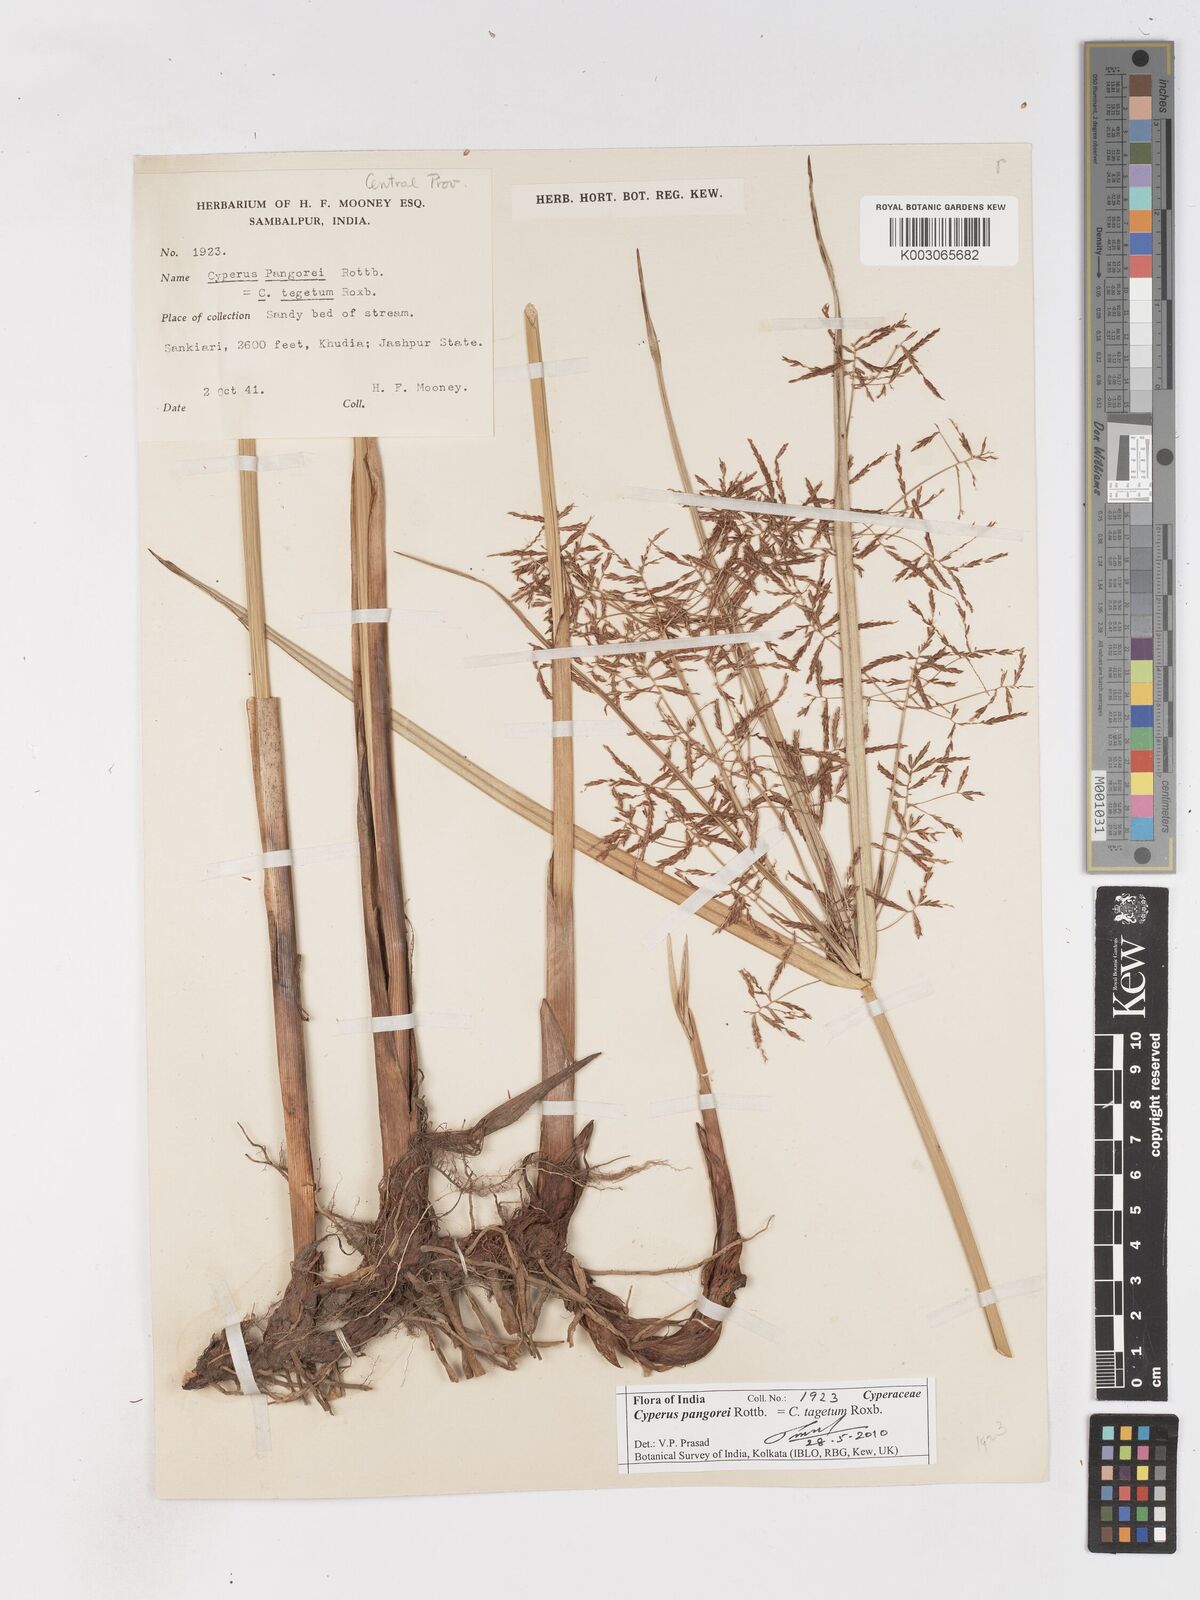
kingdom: Plantae
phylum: Tracheophyta
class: Liliopsida
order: Poales
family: Cyperaceae
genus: Cyperus
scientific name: Cyperus pangorei
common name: Mat sedge
